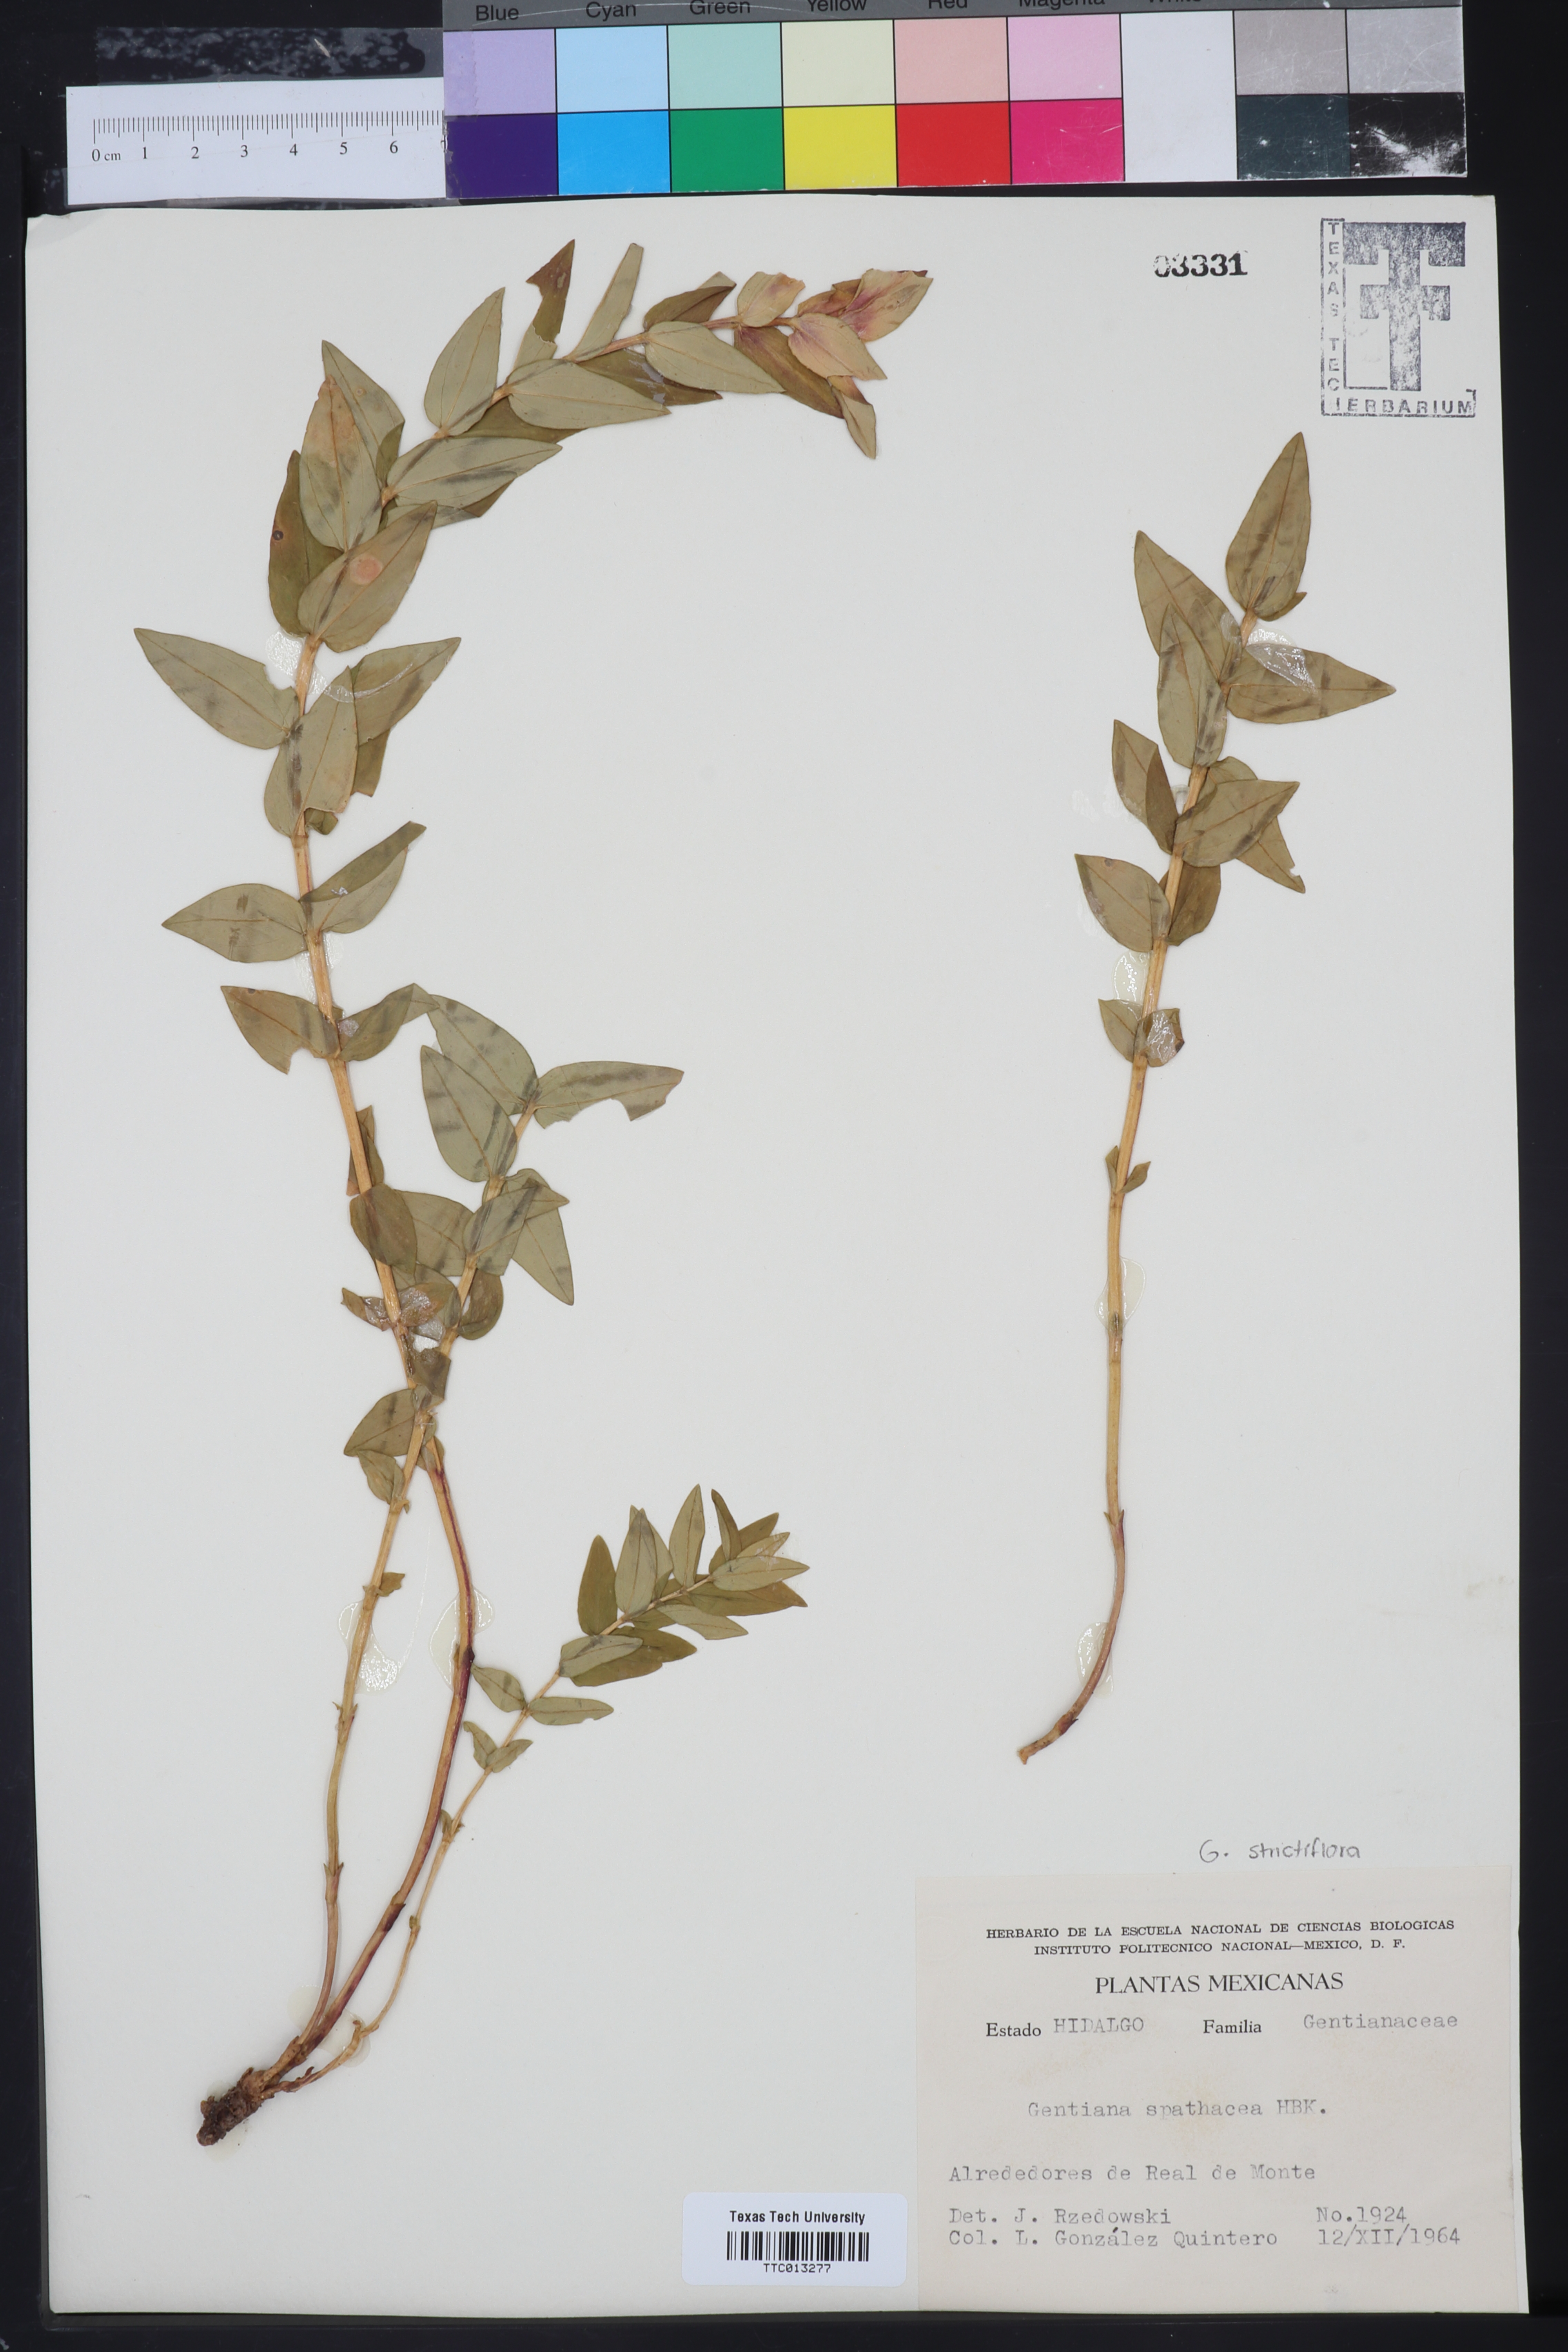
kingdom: Plantae
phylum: Tracheophyta
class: Magnoliopsida
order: Gentianales
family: Gentianaceae
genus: Gentiana
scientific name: Gentiana spathacea
